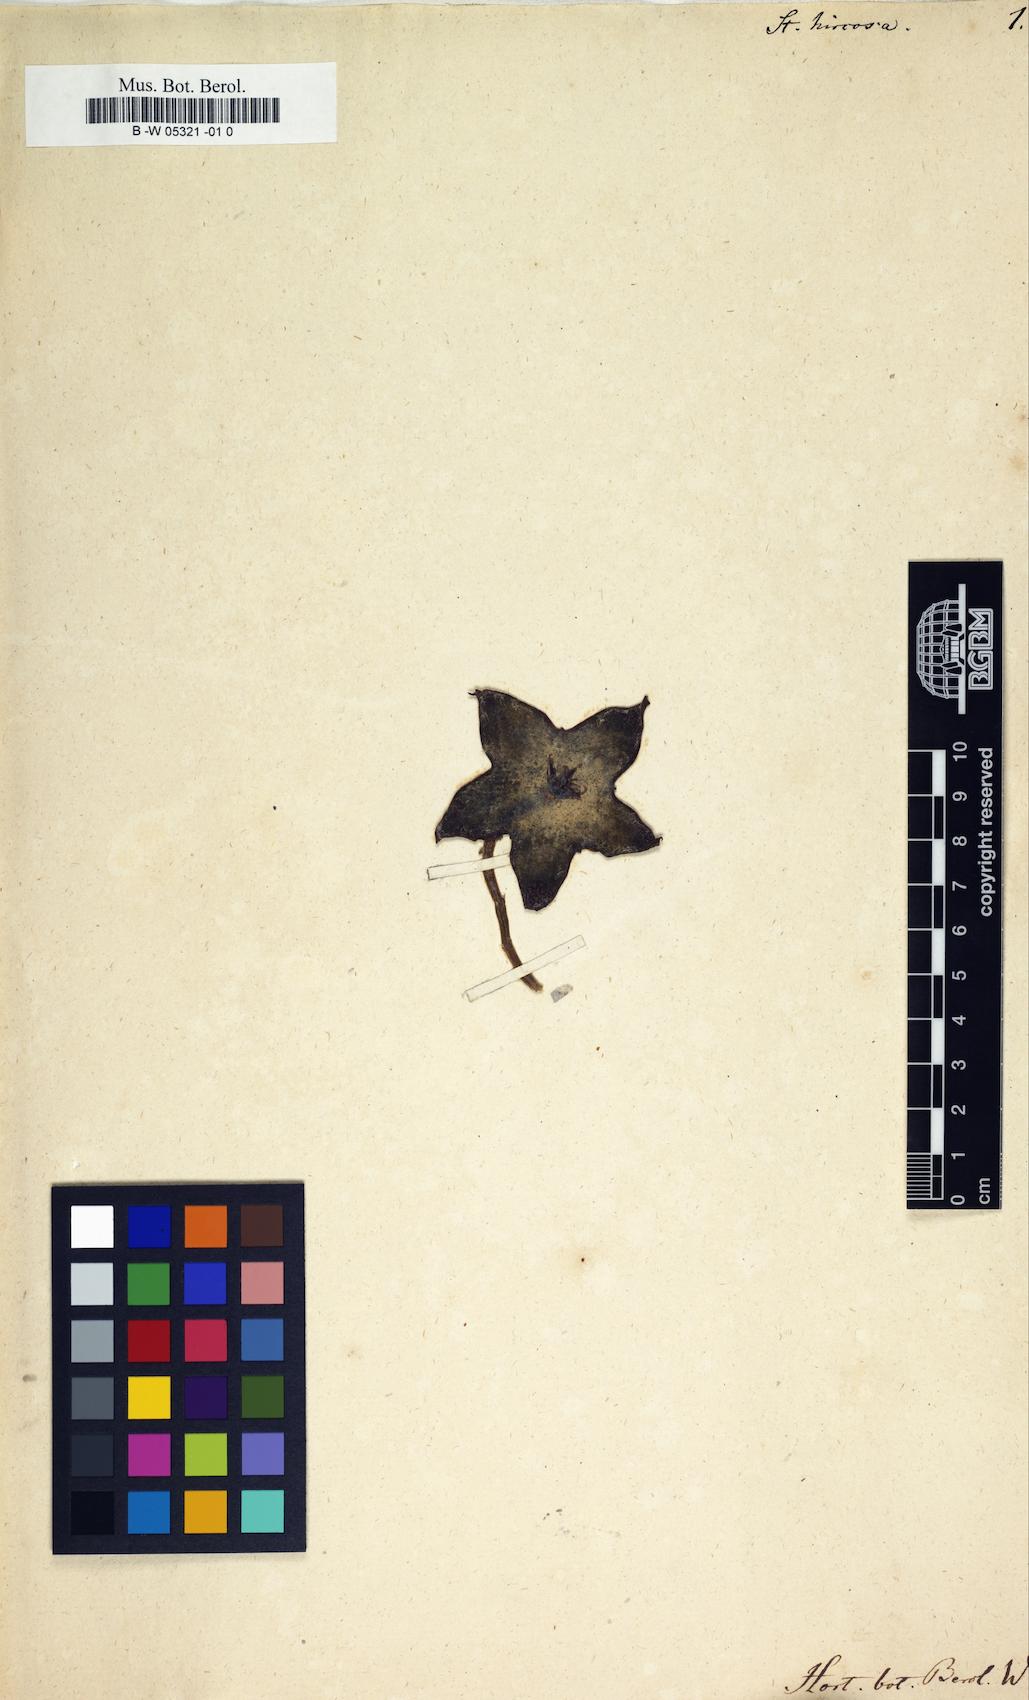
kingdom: Plantae
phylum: Tracheophyta
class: Magnoliopsida
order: Gentianales
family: Apocynaceae
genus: Ceropegia
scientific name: Ceropegia gemmiflora
